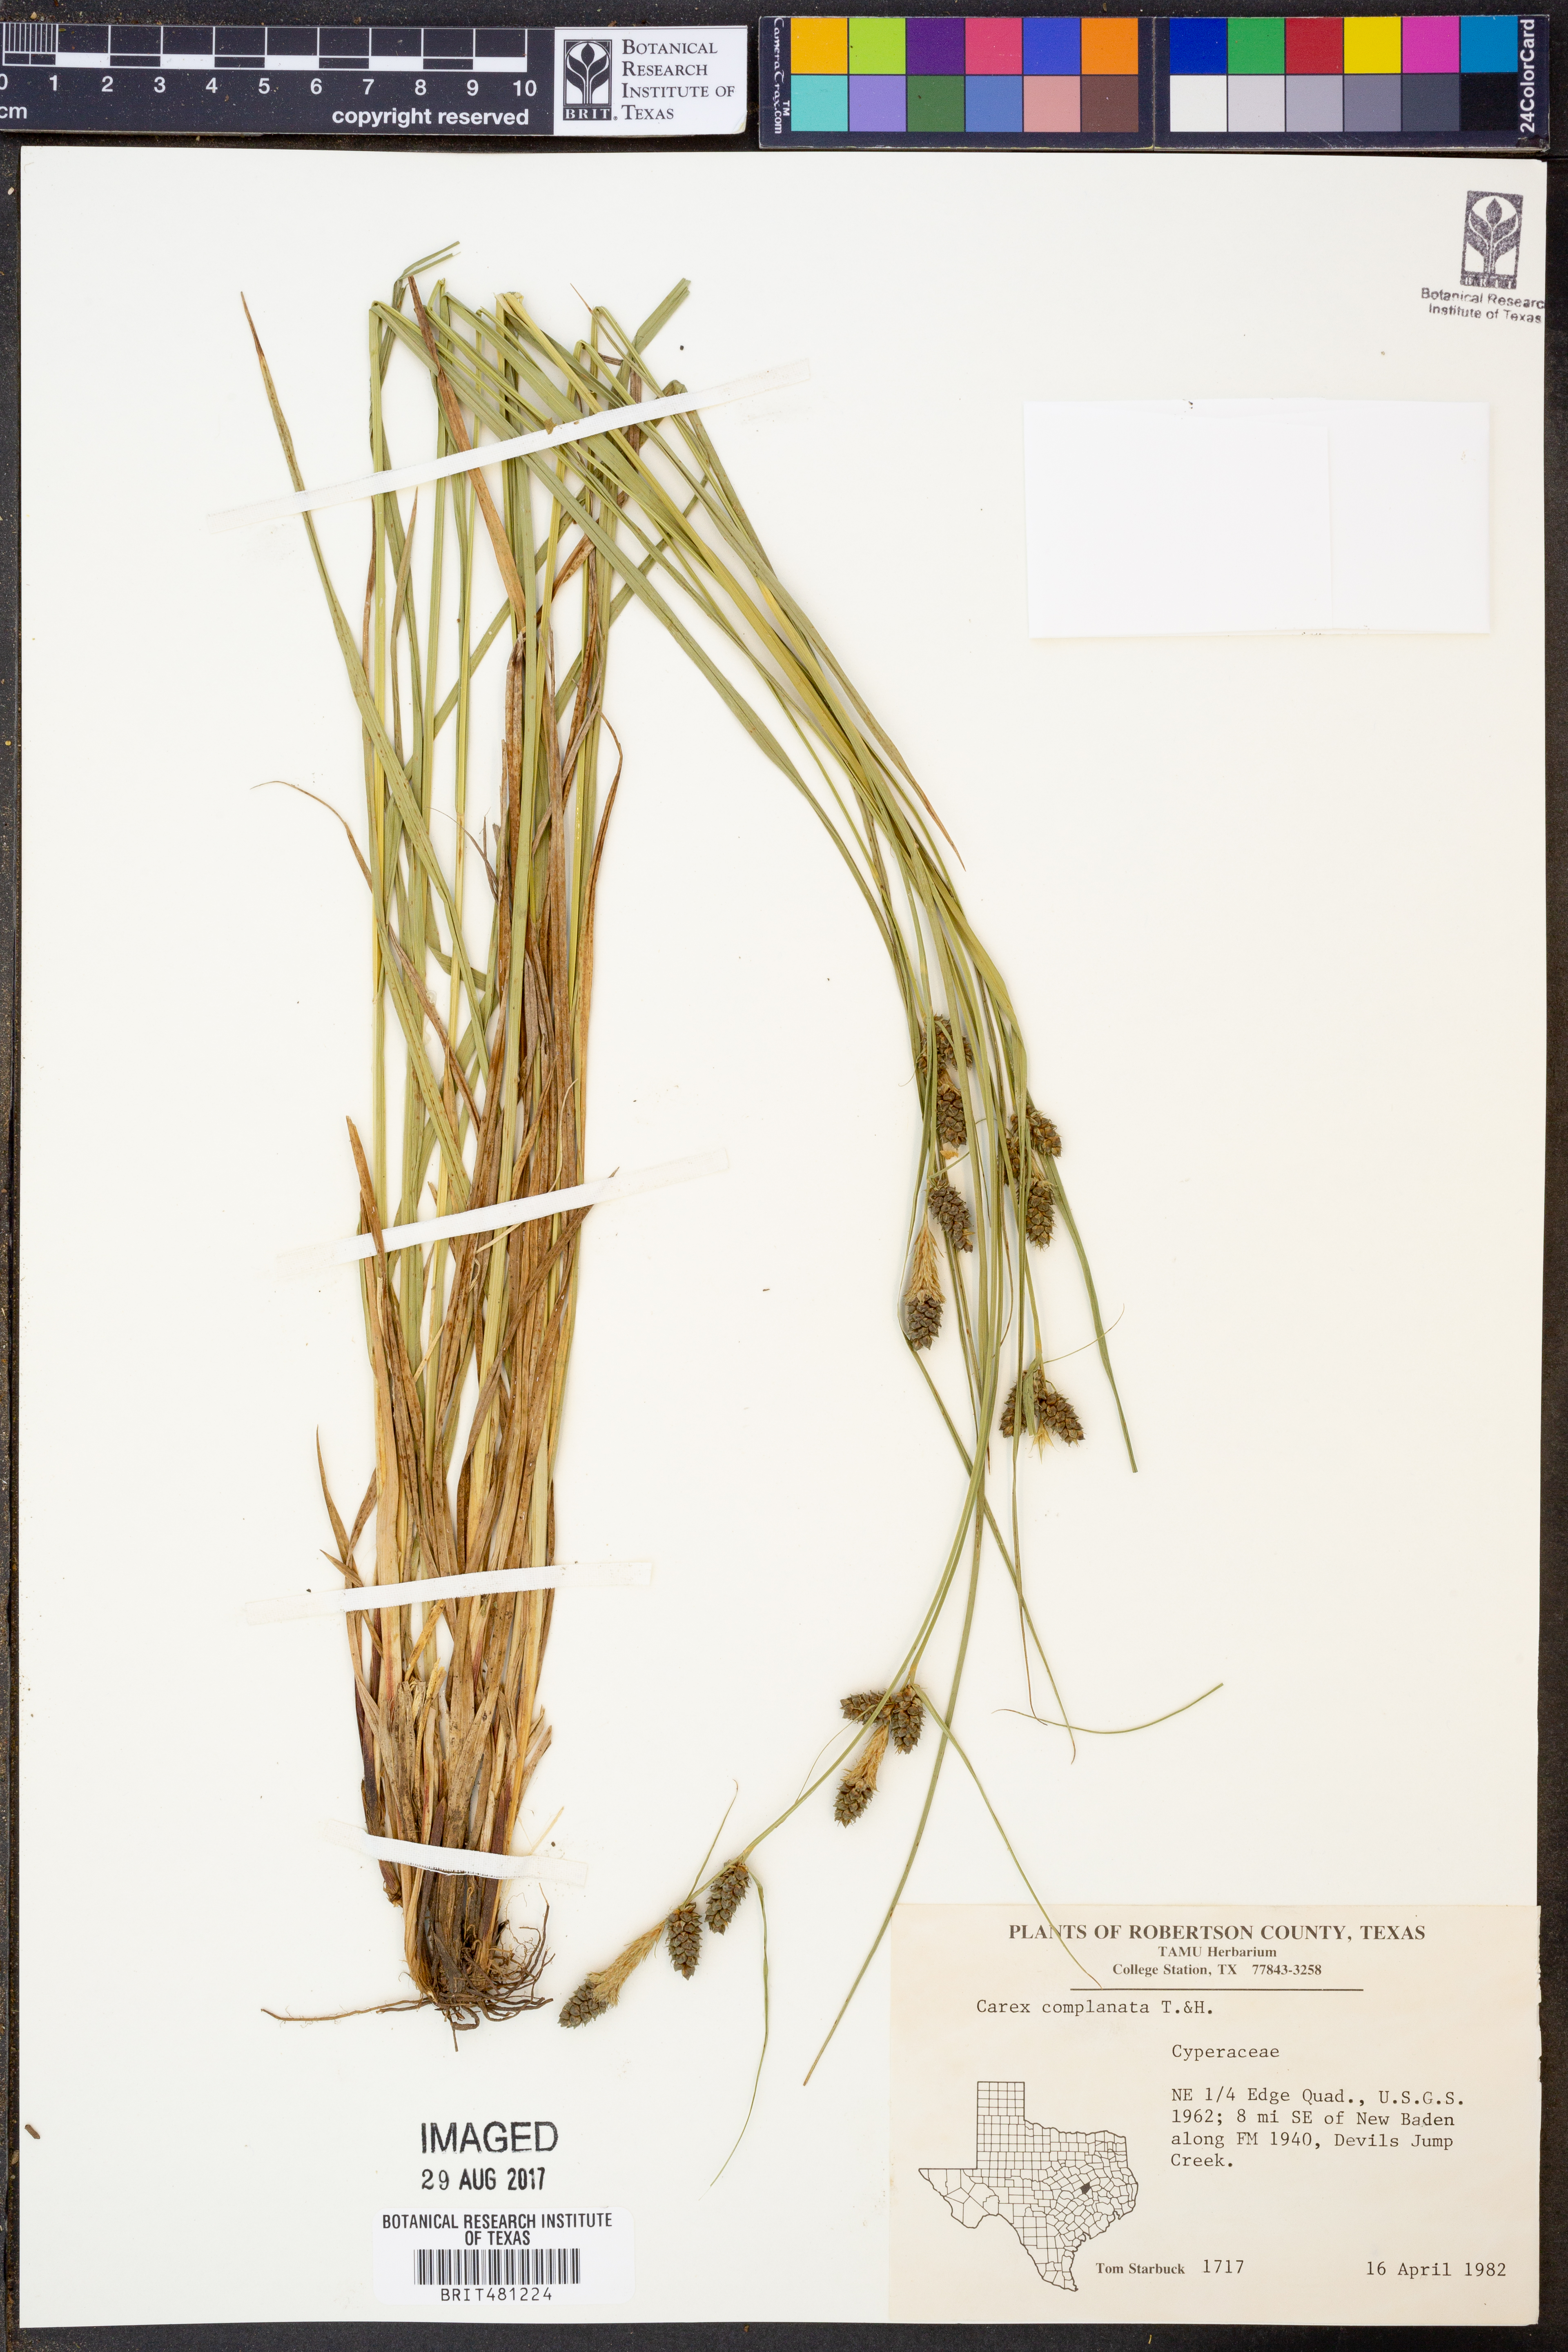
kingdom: Plantae
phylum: Tracheophyta
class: Liliopsida
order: Poales
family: Cyperaceae
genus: Carex
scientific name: Carex complanata
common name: Hirsute sedge
